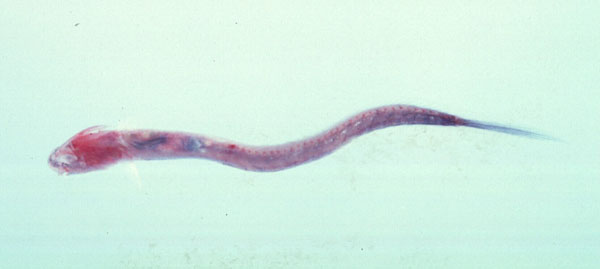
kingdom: Animalia
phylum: Chordata
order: Perciformes
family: Gobiidae
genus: Taenioides
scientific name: Taenioides esquivel
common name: Bulldog eelgoby
